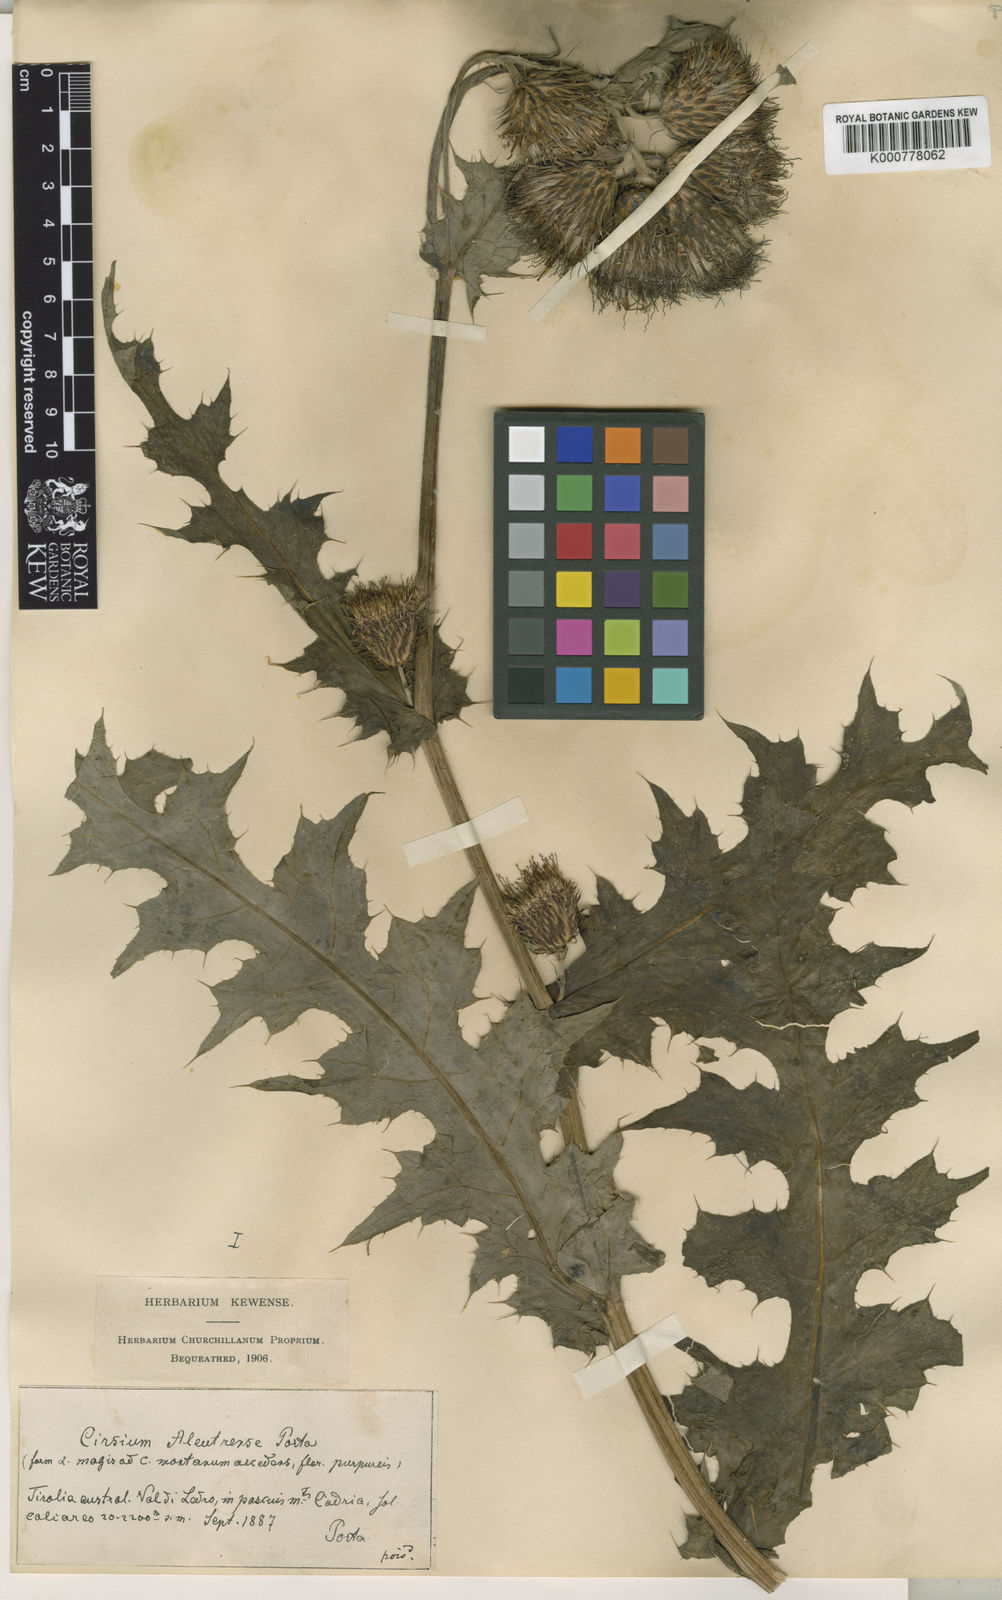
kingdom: Plantae
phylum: Tracheophyta
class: Magnoliopsida
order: Asterales
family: Asteraceae
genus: Cirsium
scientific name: Cirsium
